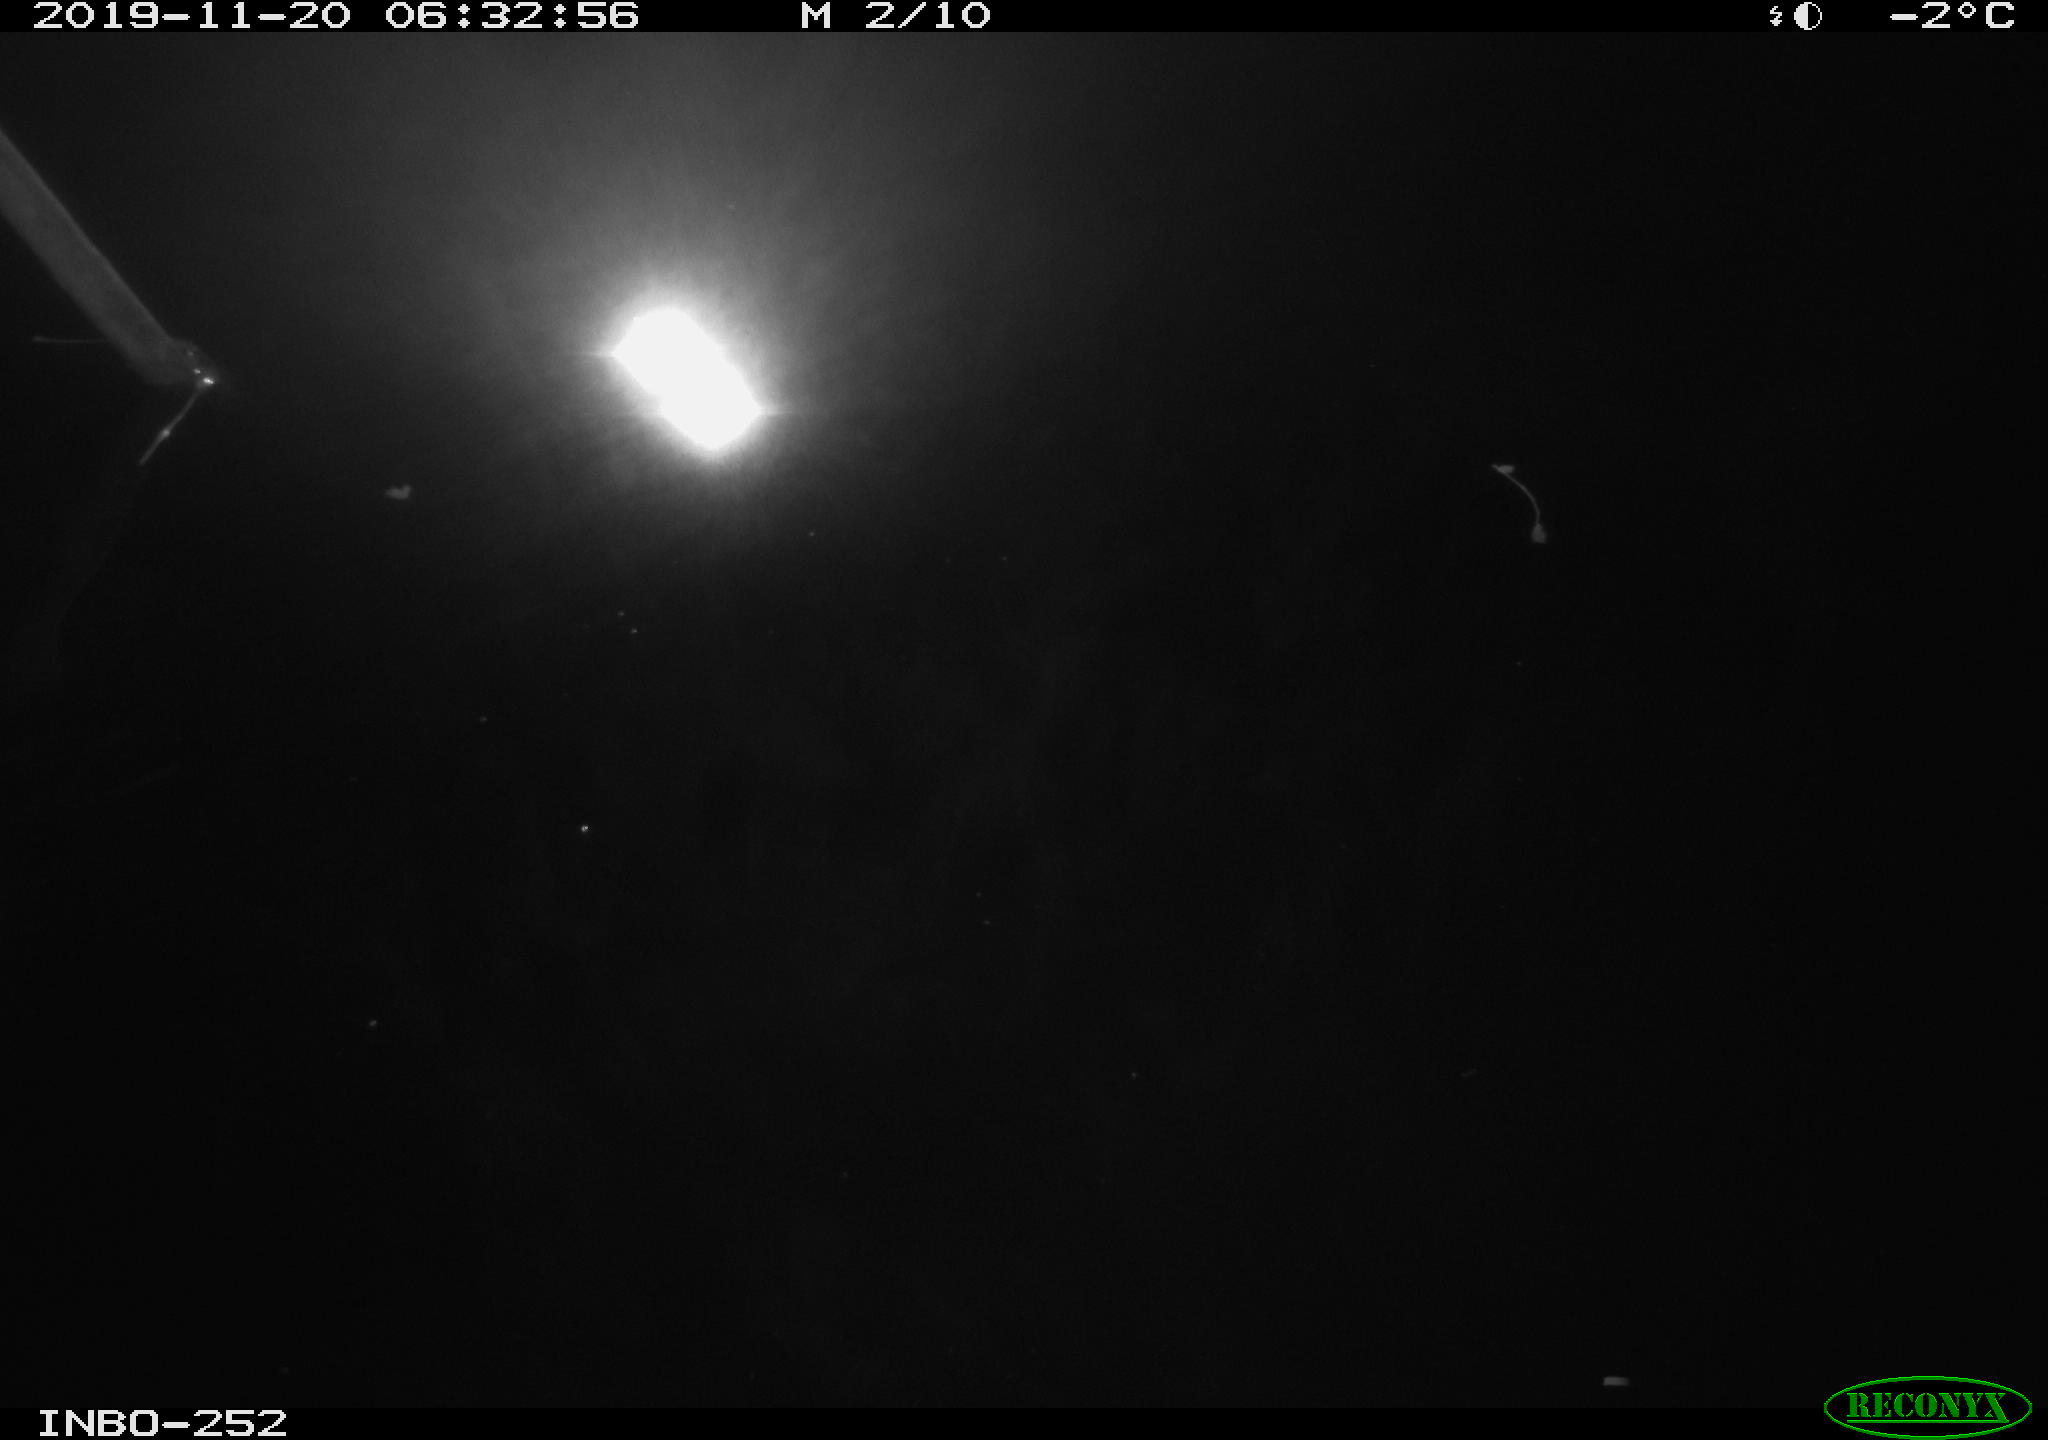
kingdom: Animalia
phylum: Chordata
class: Aves
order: Anseriformes
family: Anatidae
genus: Anas
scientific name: Anas platyrhynchos
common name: Mallard
